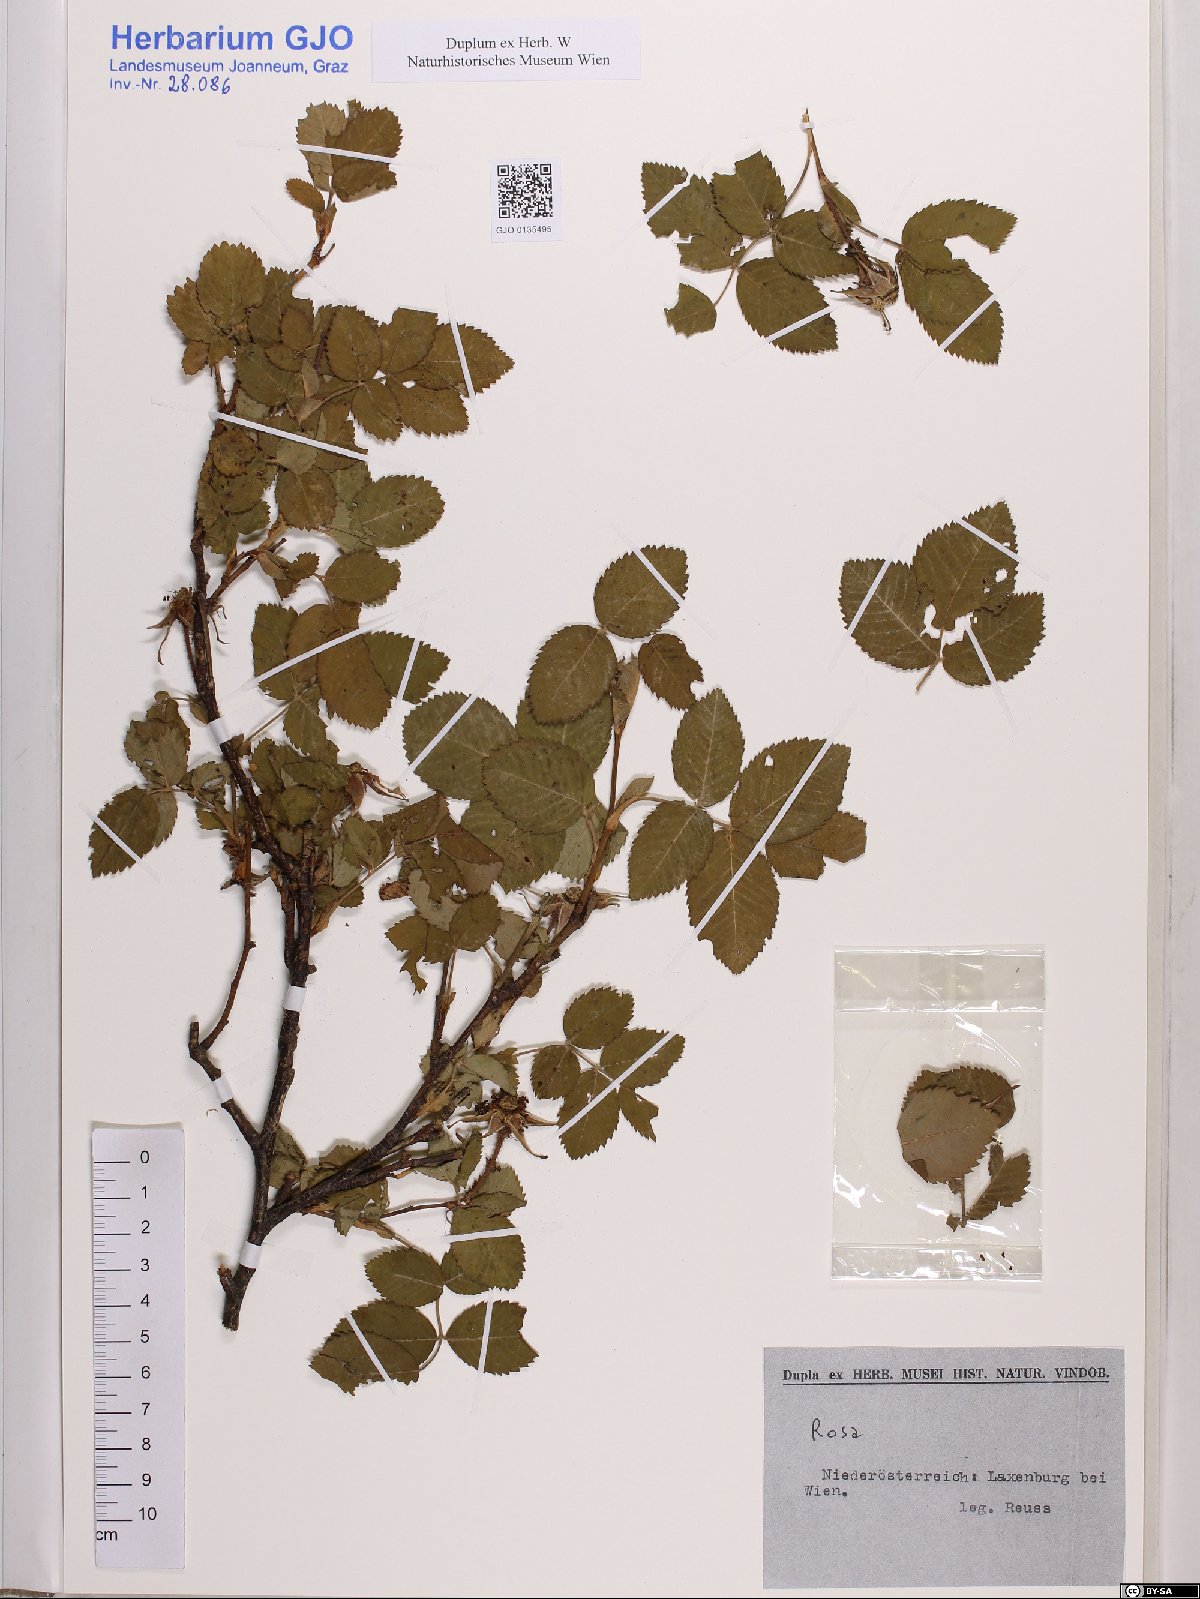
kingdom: Plantae
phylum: Tracheophyta
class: Magnoliopsida
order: Rosales
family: Rosaceae
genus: Rosa
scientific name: Rosa
